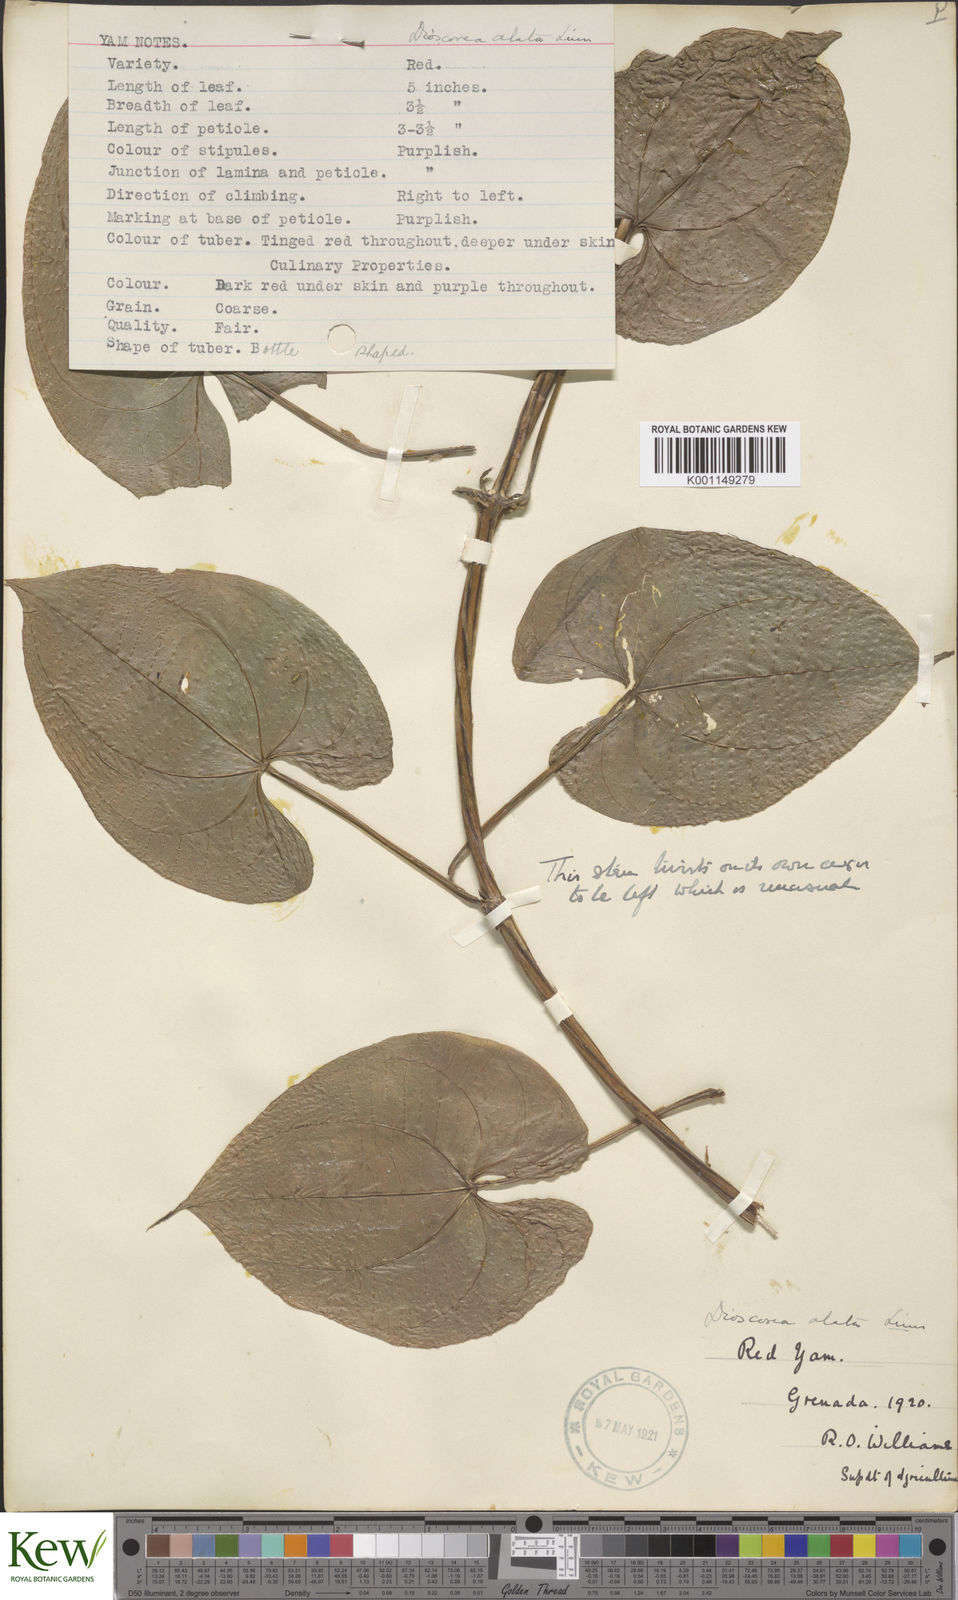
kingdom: Plantae
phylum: Tracheophyta
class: Liliopsida
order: Dioscoreales
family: Dioscoreaceae
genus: Dioscorea
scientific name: Dioscorea alata
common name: Water yam
